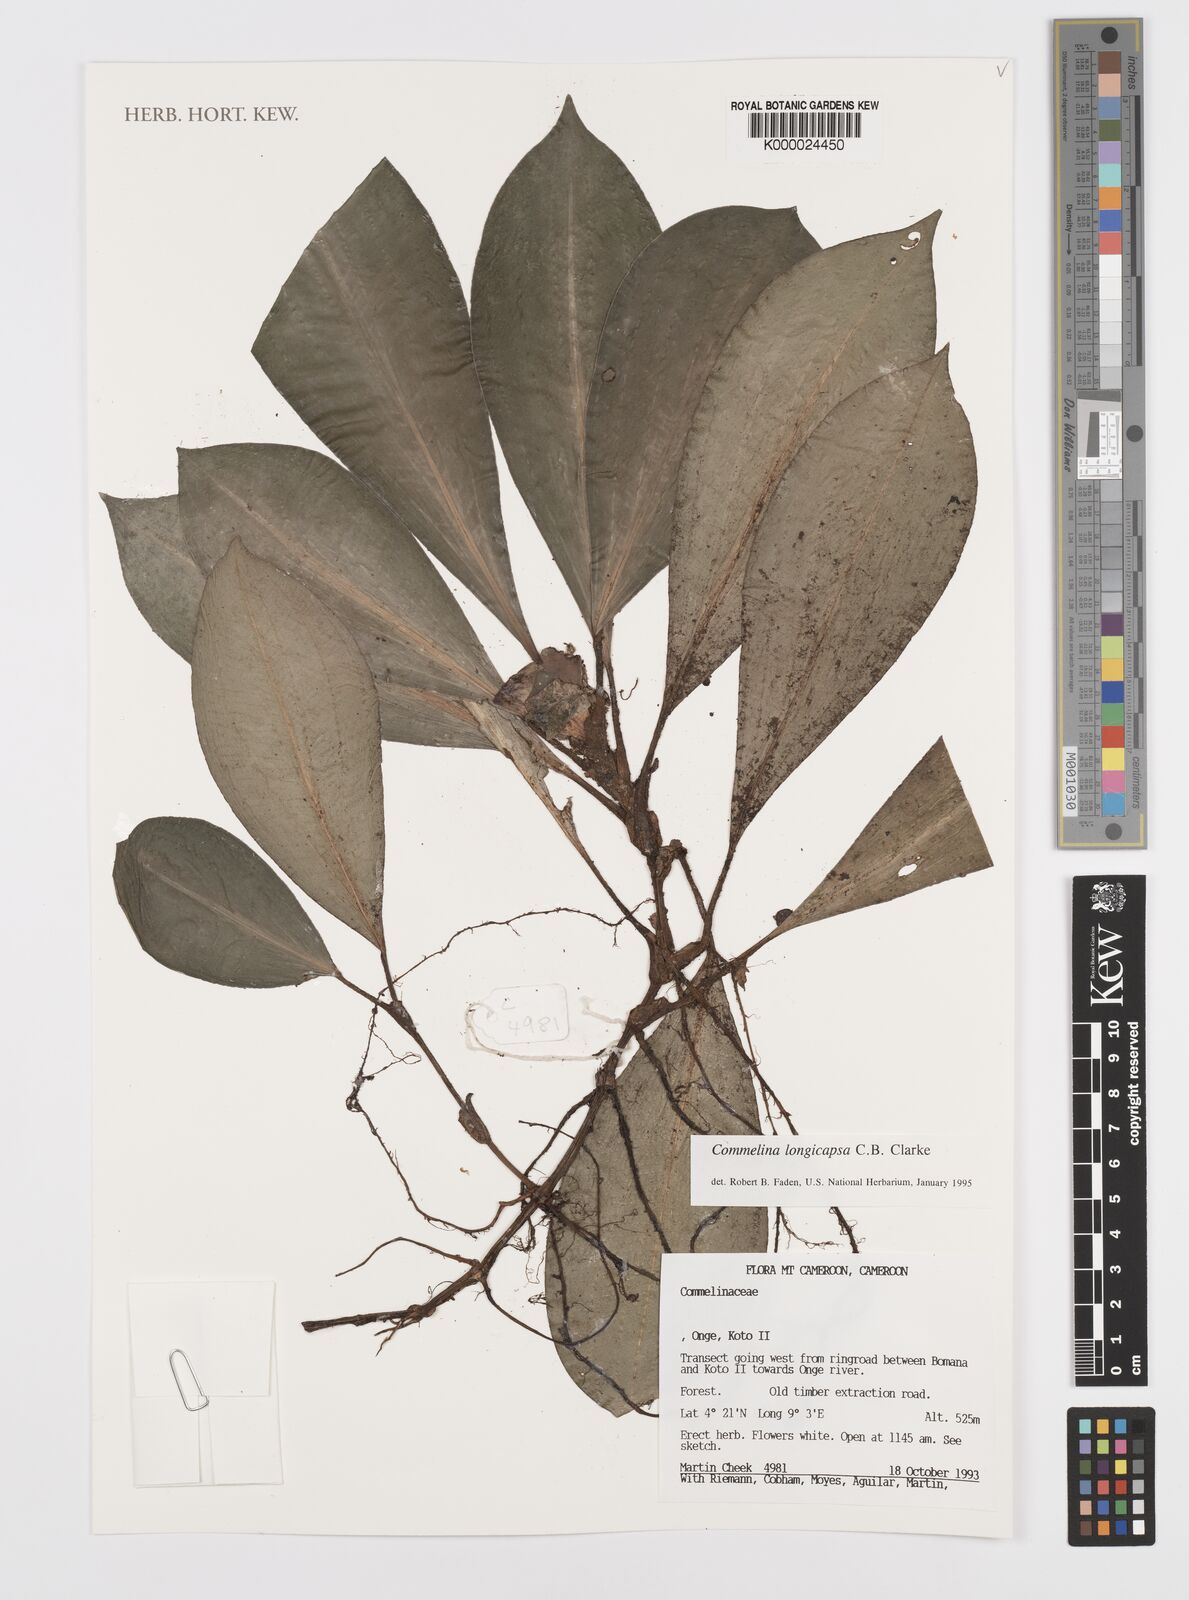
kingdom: Plantae
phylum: Tracheophyta
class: Liliopsida
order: Commelinales
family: Commelinaceae
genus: Commelina
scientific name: Commelina longicapsa
